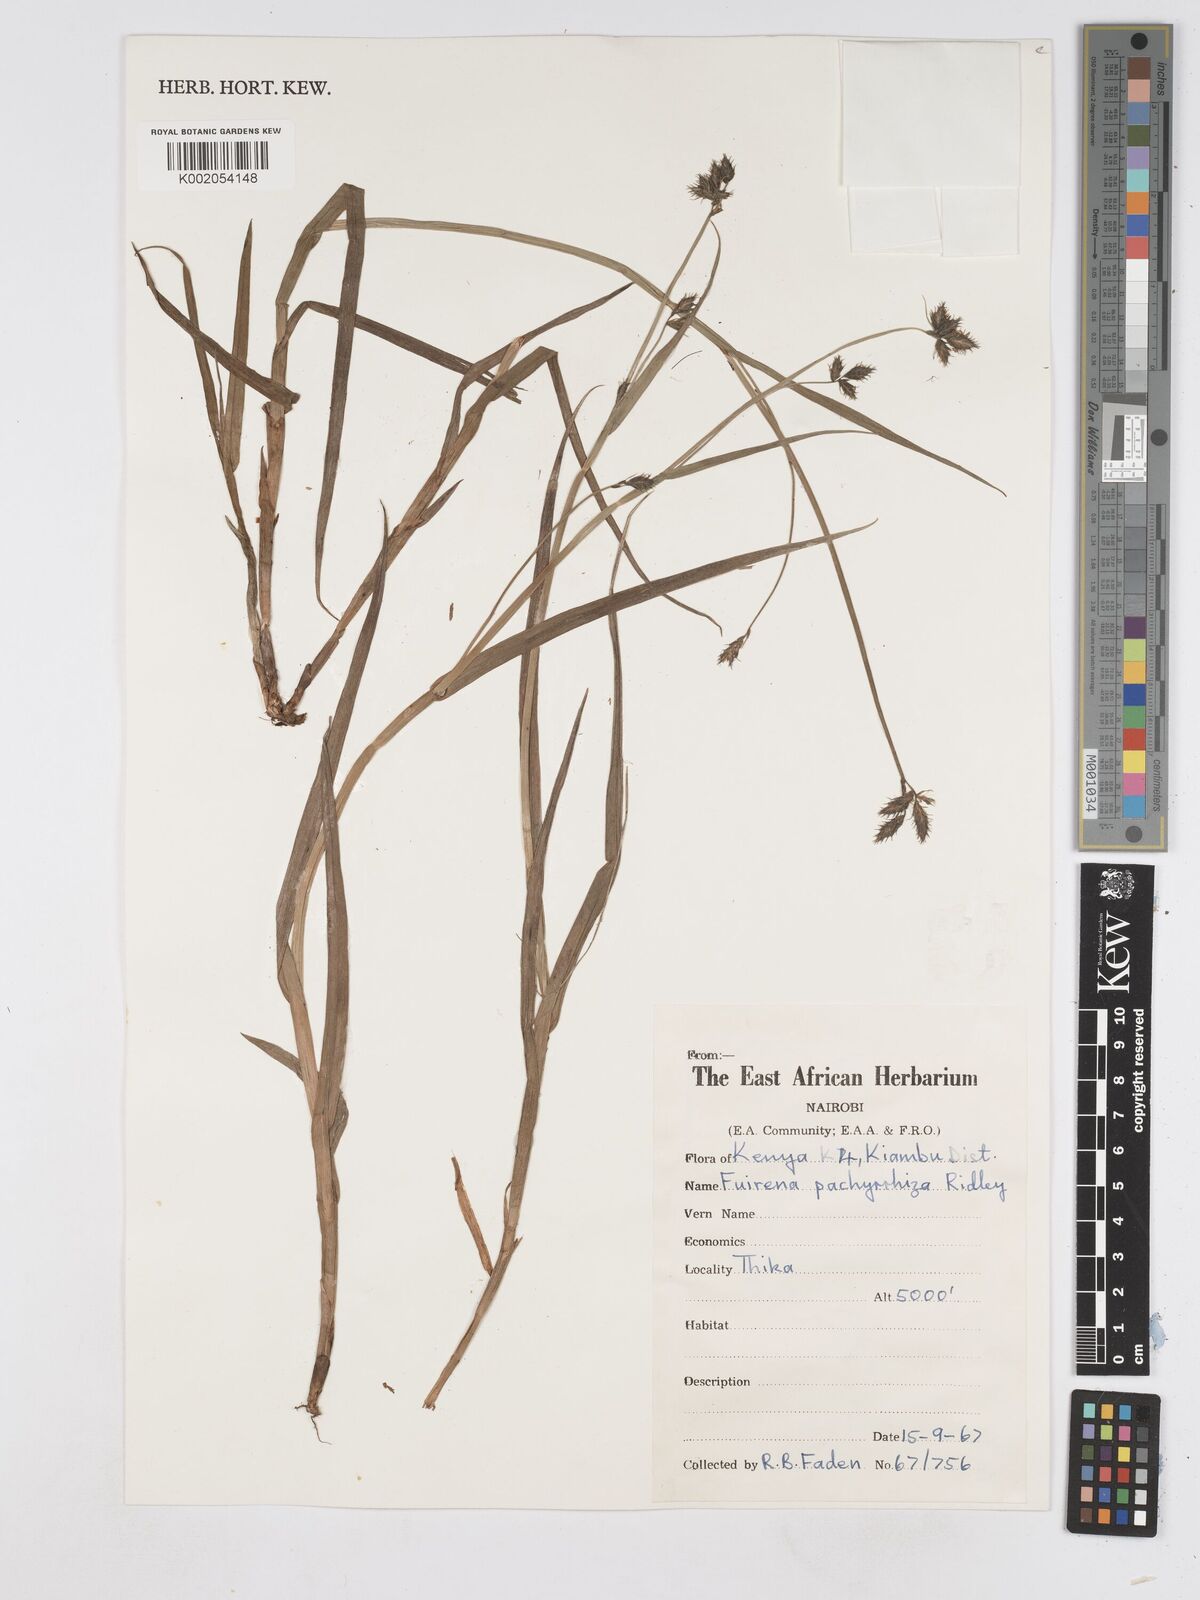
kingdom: Plantae
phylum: Tracheophyta
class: Liliopsida
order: Poales
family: Cyperaceae
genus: Fuirena
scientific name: Fuirena pachyrrhiza
